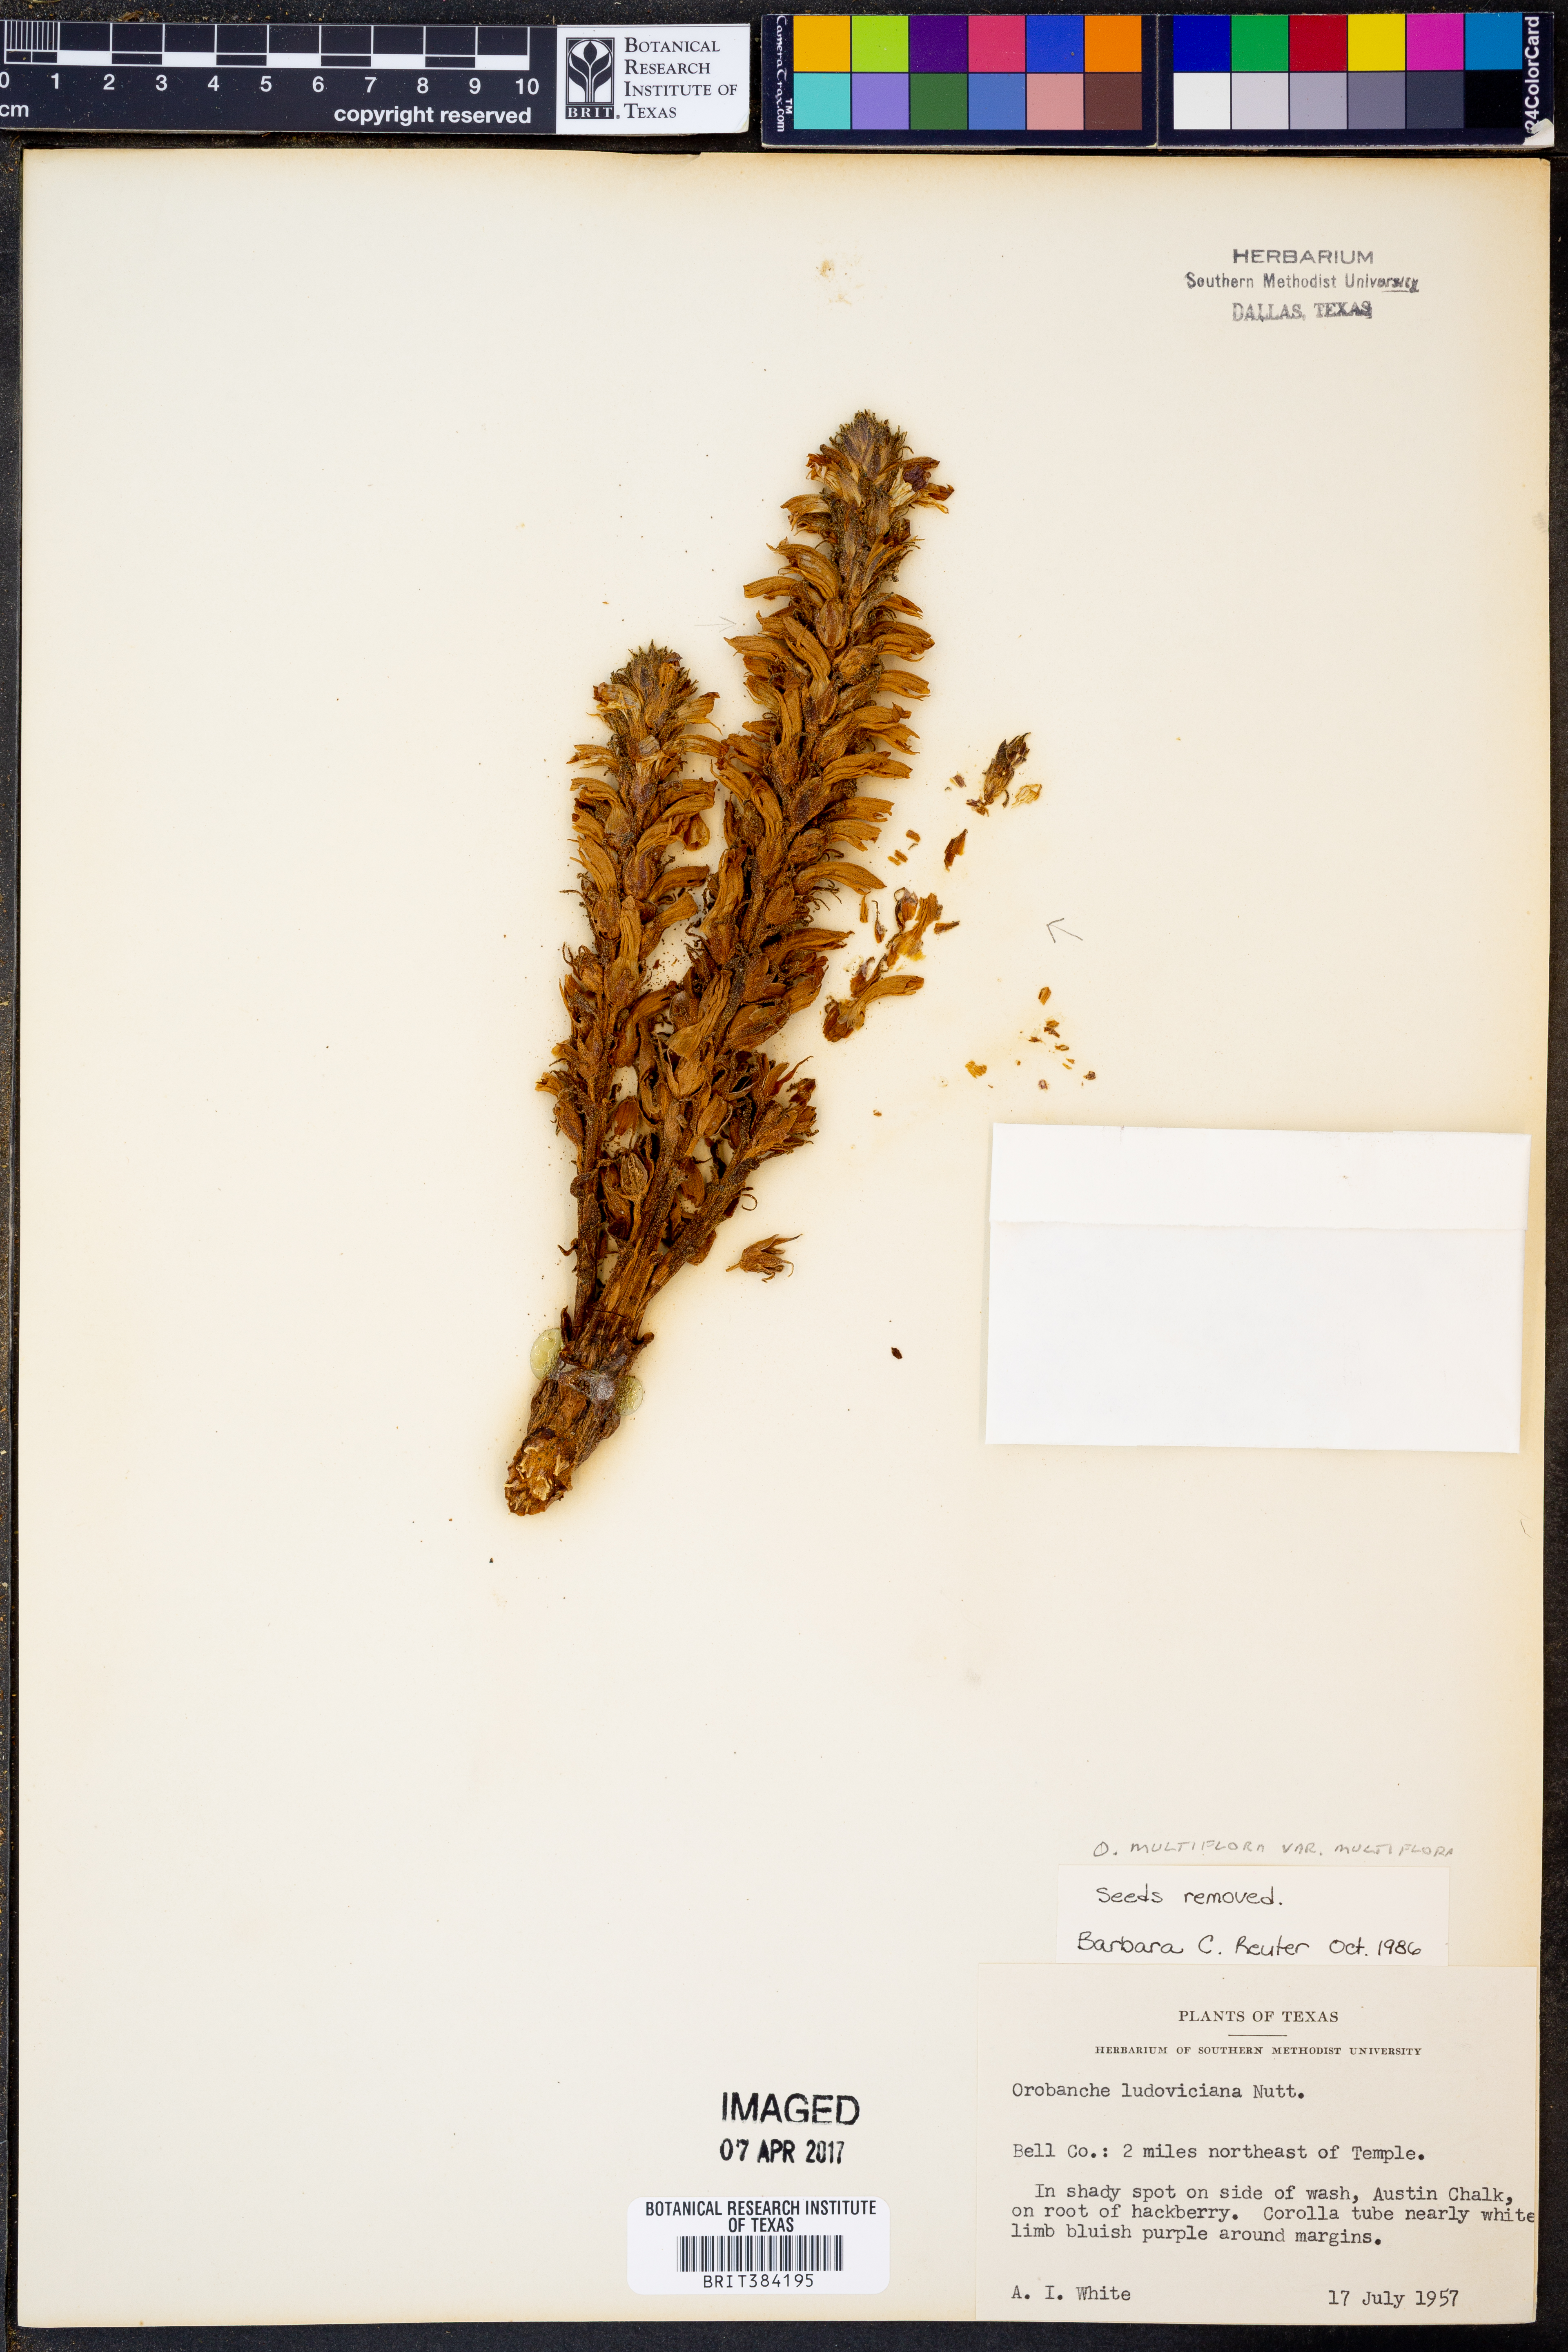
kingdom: Plantae
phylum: Tracheophyta
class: Magnoliopsida
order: Lamiales
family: Orobanchaceae
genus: Aphyllon
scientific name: Aphyllon multiflorum
